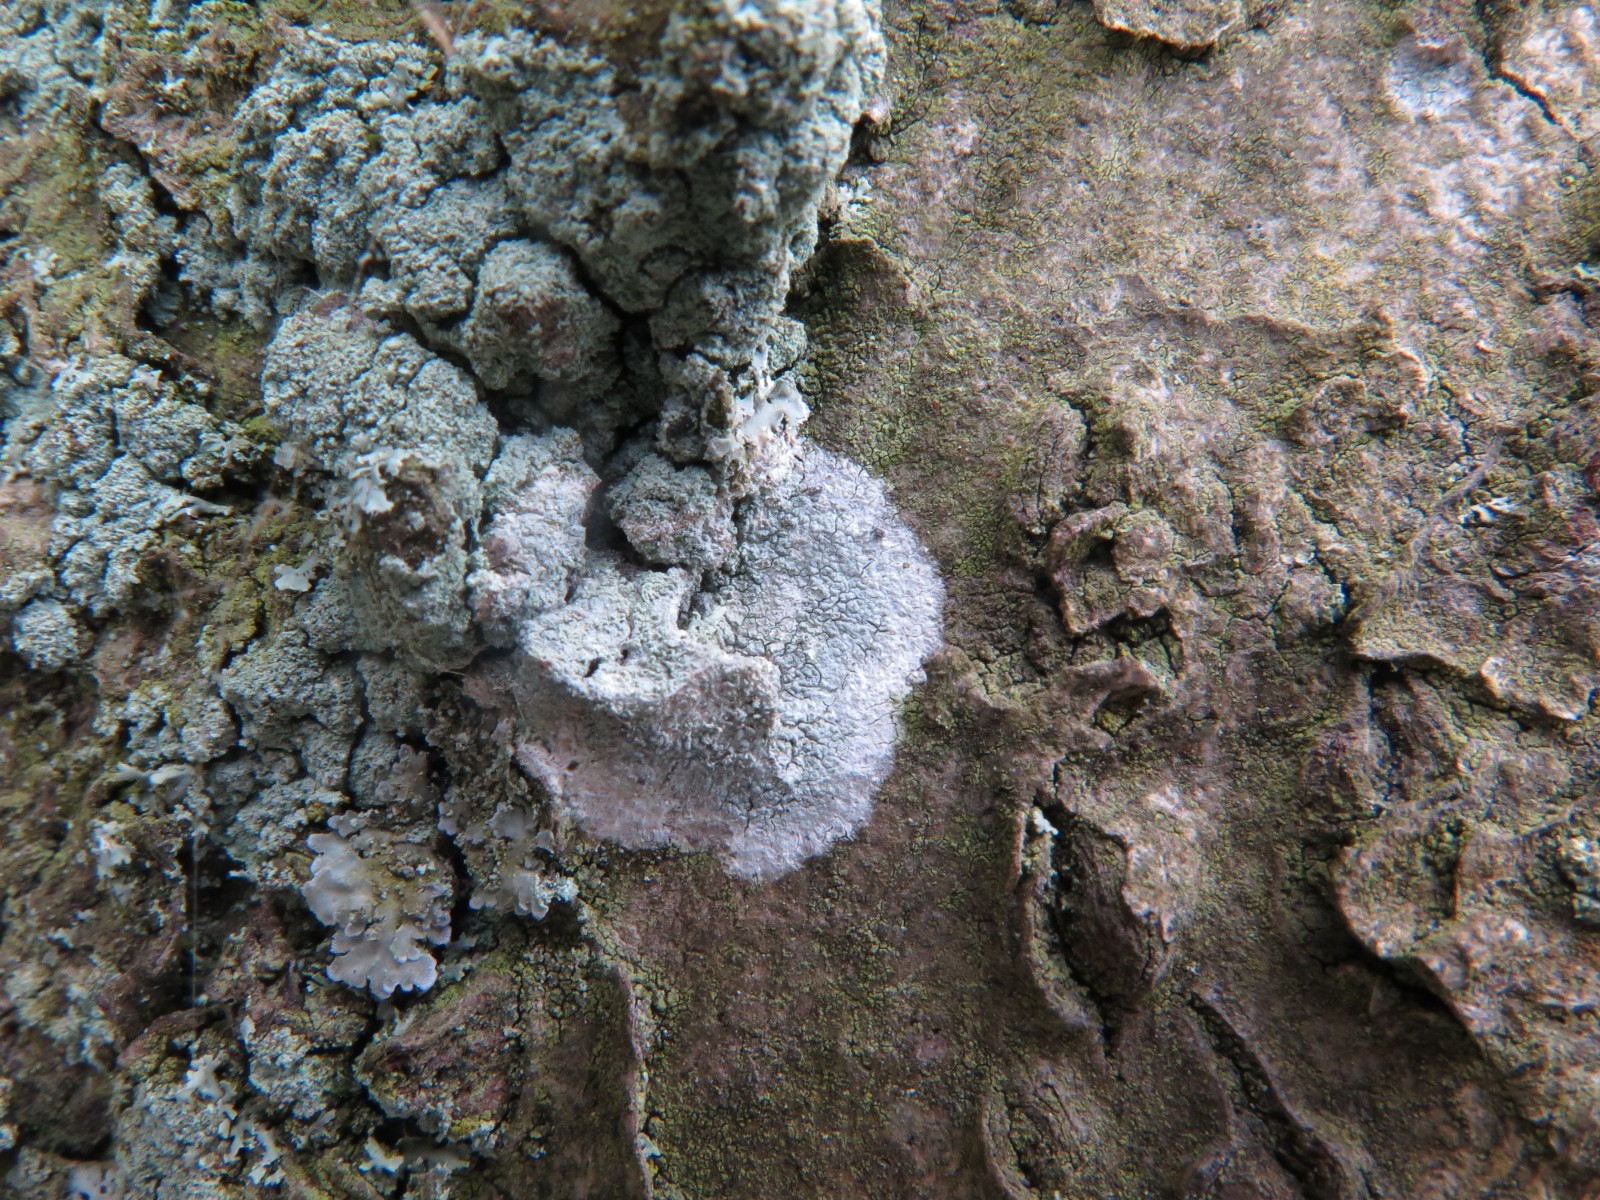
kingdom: Fungi
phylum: Ascomycota
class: Lecanoromycetes
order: Ostropales
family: Phlyctidaceae
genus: Phlyctis
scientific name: Phlyctis argena
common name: almindelig sølvlav
